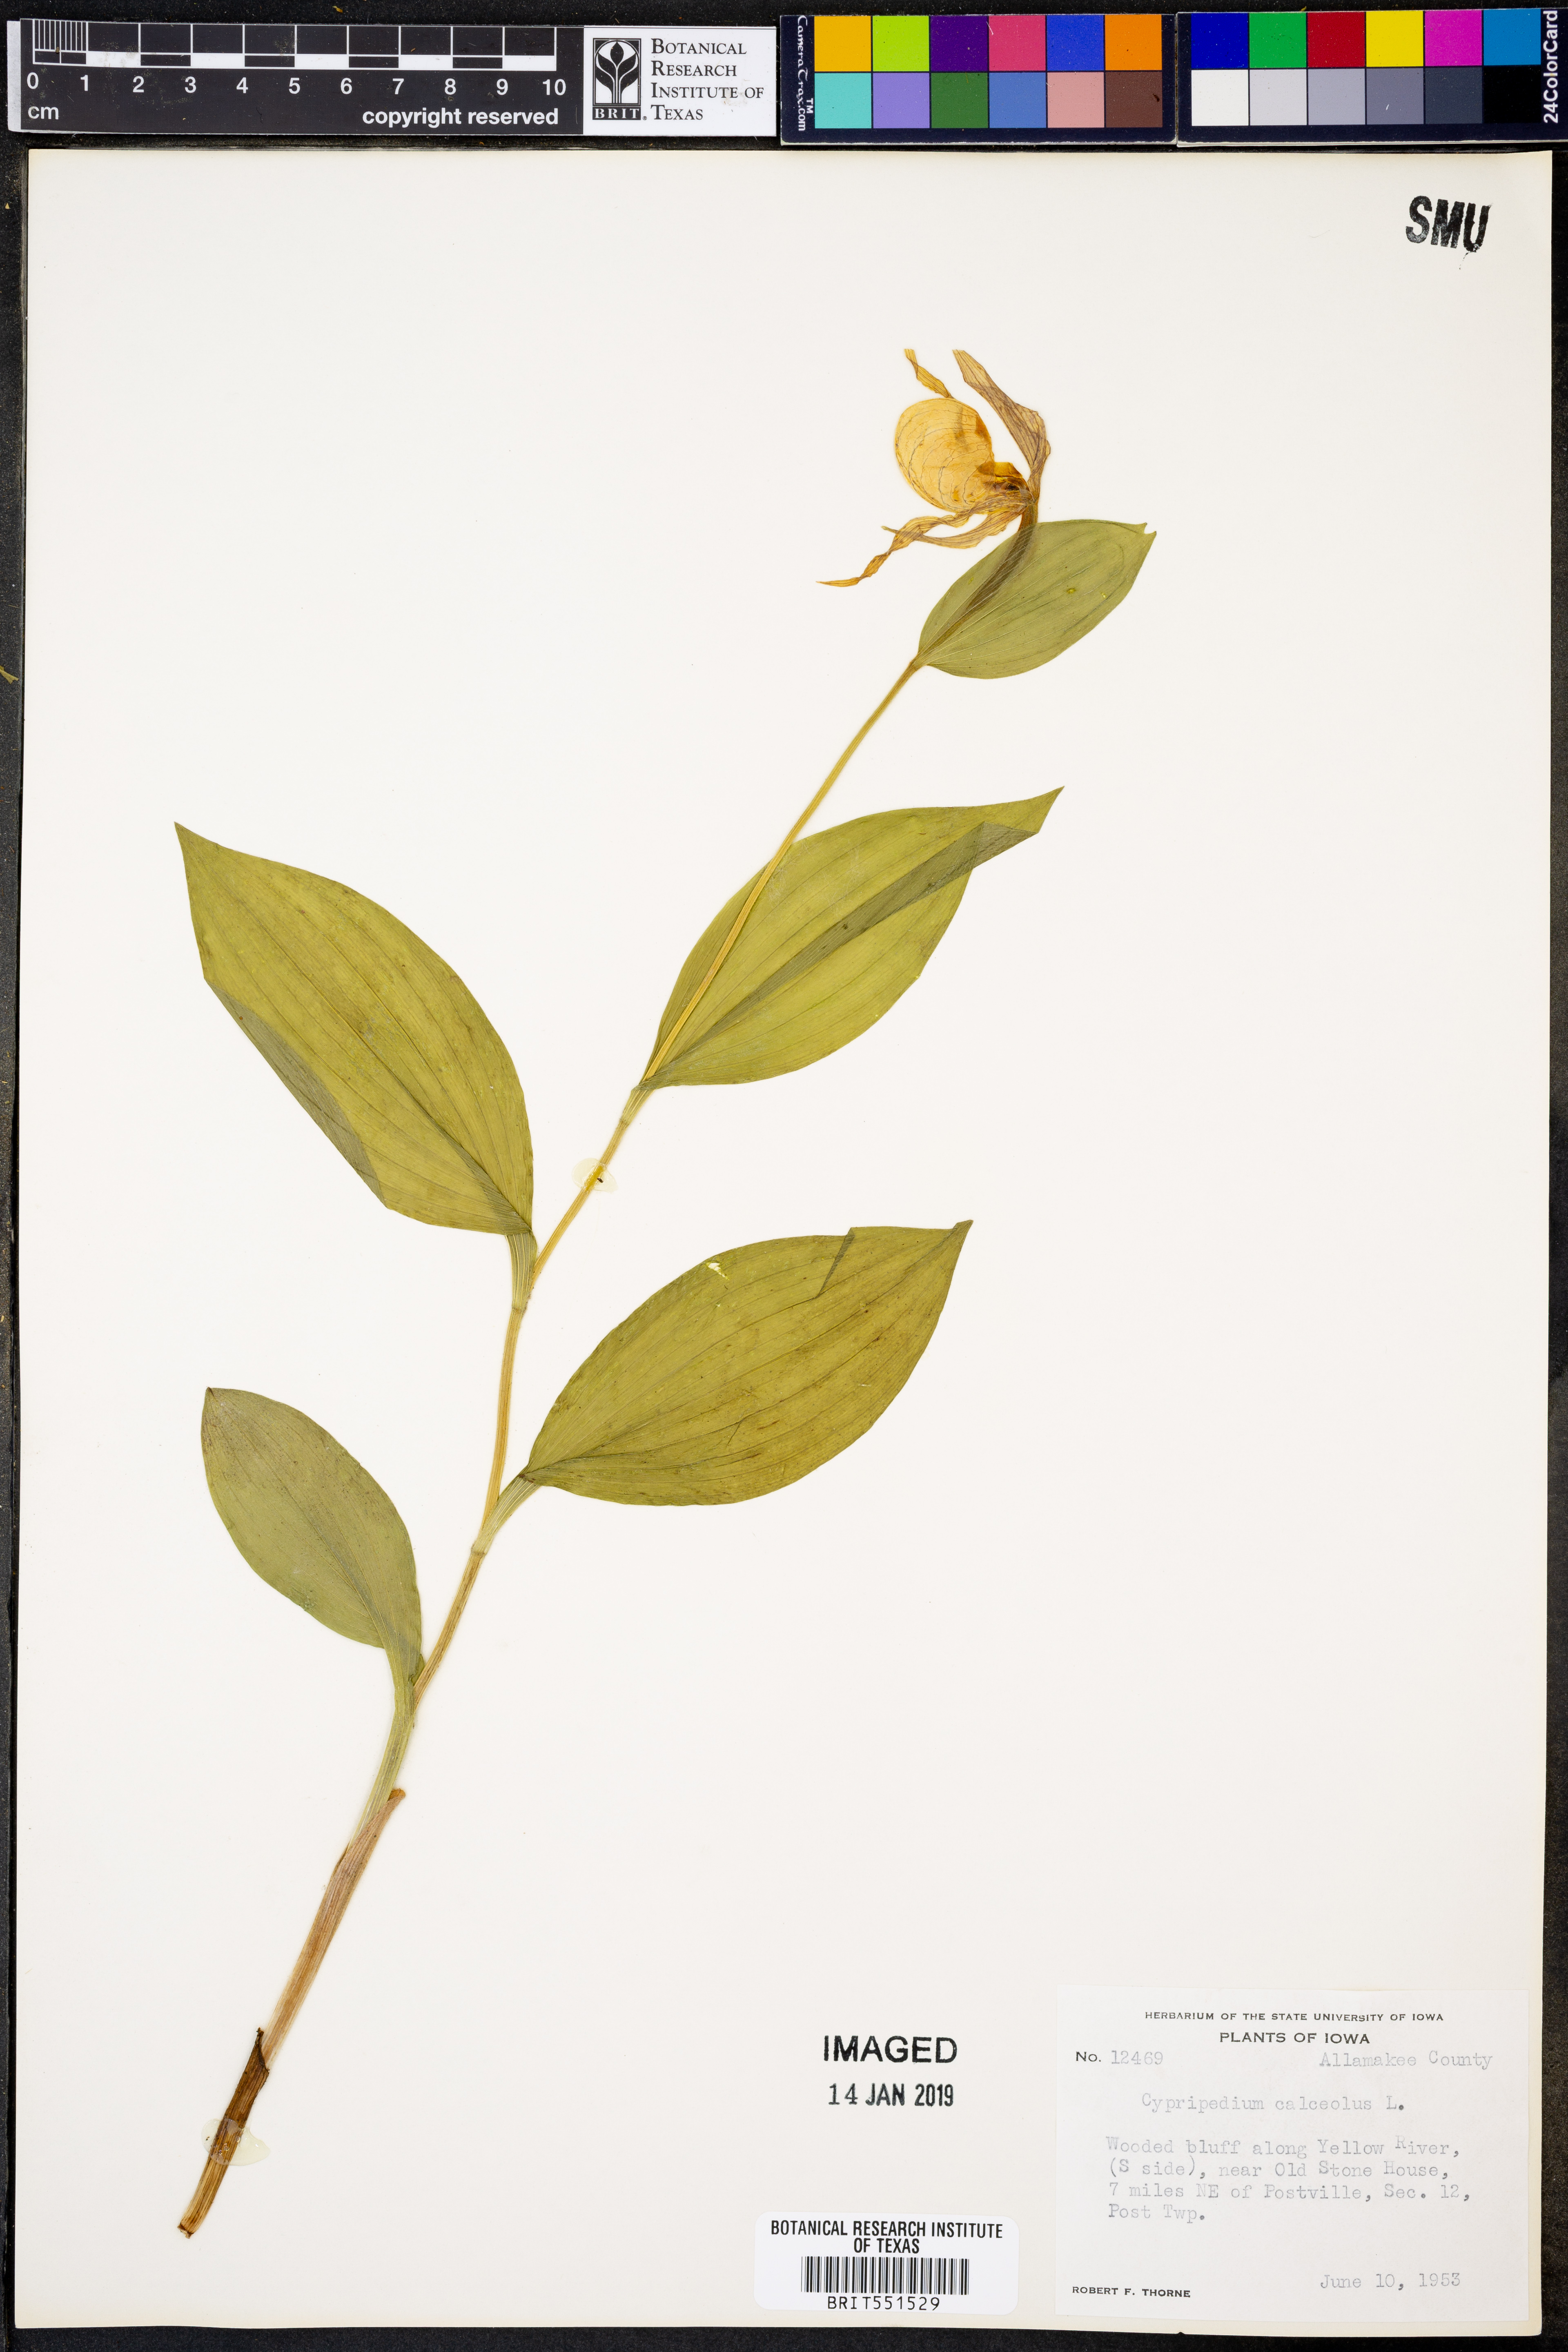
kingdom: Plantae
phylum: Tracheophyta
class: Liliopsida
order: Asparagales
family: Orchidaceae
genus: Cypripedium
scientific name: Cypripedium calceolus
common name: Lady's-slipper
